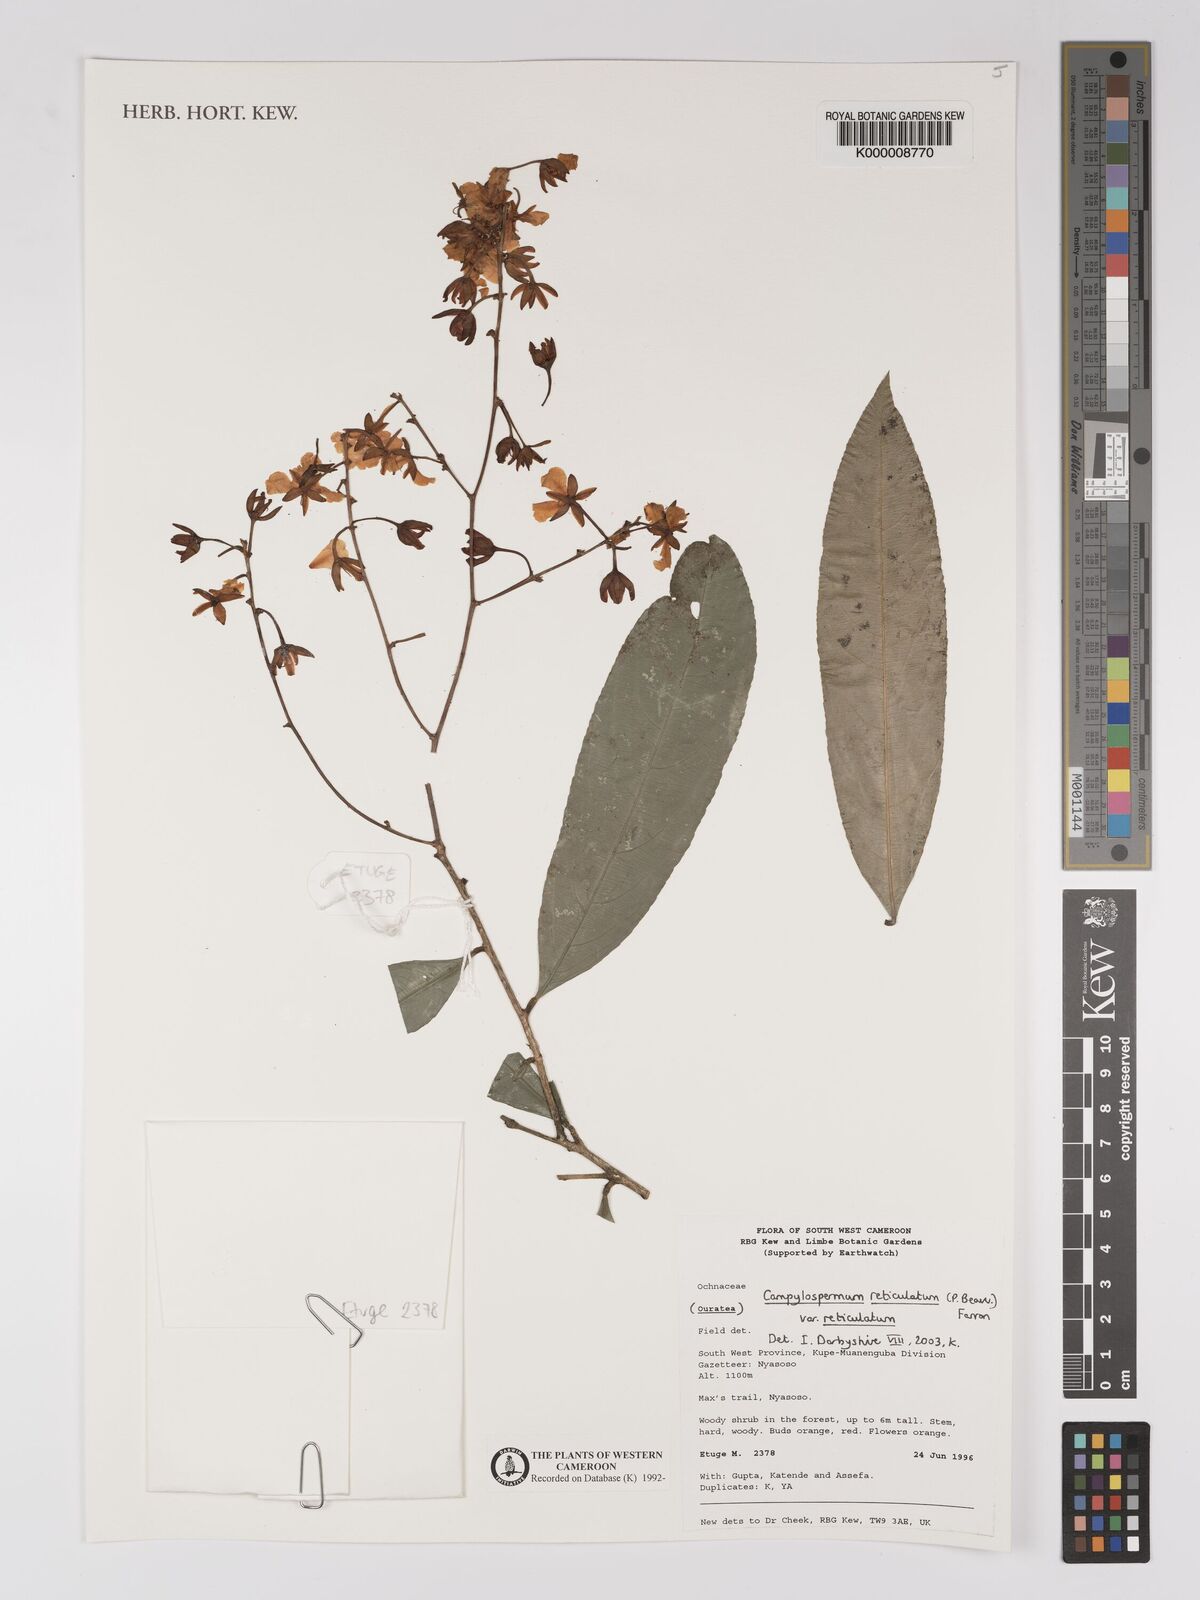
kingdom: Plantae
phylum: Tracheophyta
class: Magnoliopsida
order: Malpighiales
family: Ochnaceae
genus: Campylospermum
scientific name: Campylospermum reticulatum
